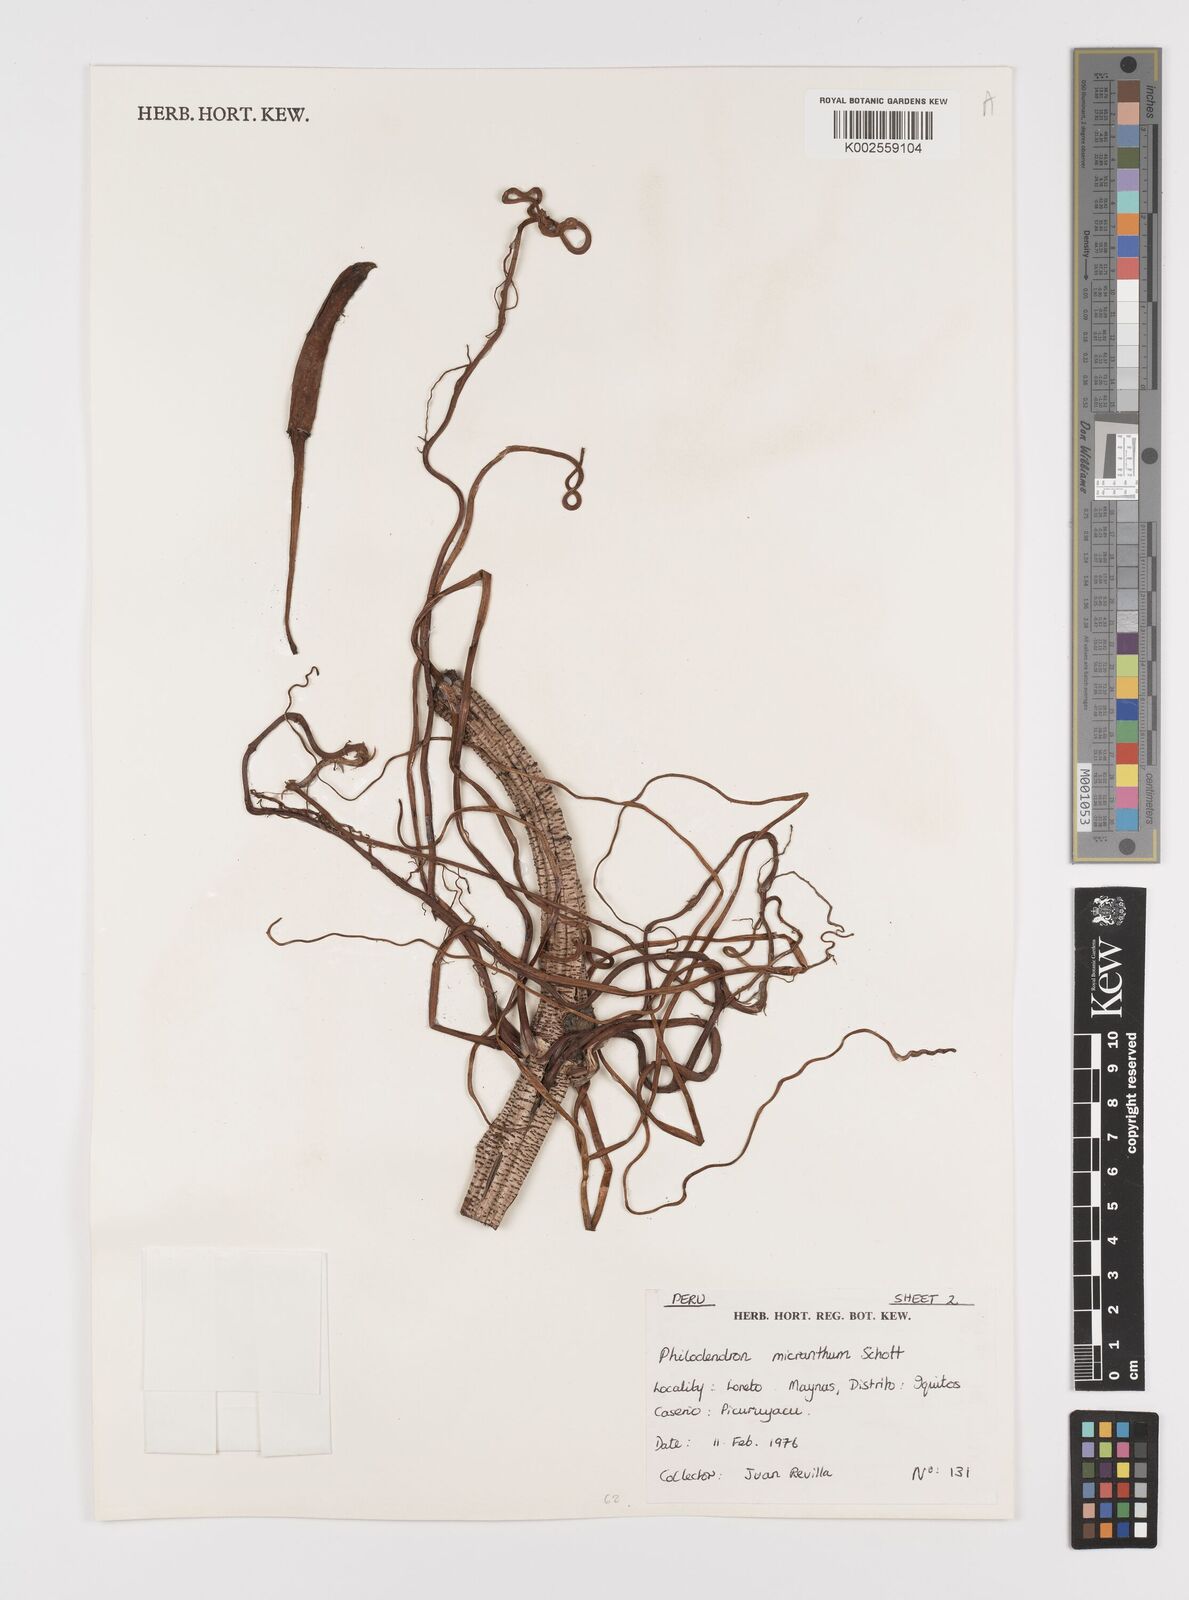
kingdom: Plantae
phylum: Tracheophyta
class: Liliopsida
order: Alismatales
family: Araceae
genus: Philodendron
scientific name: Philodendron micranthum
